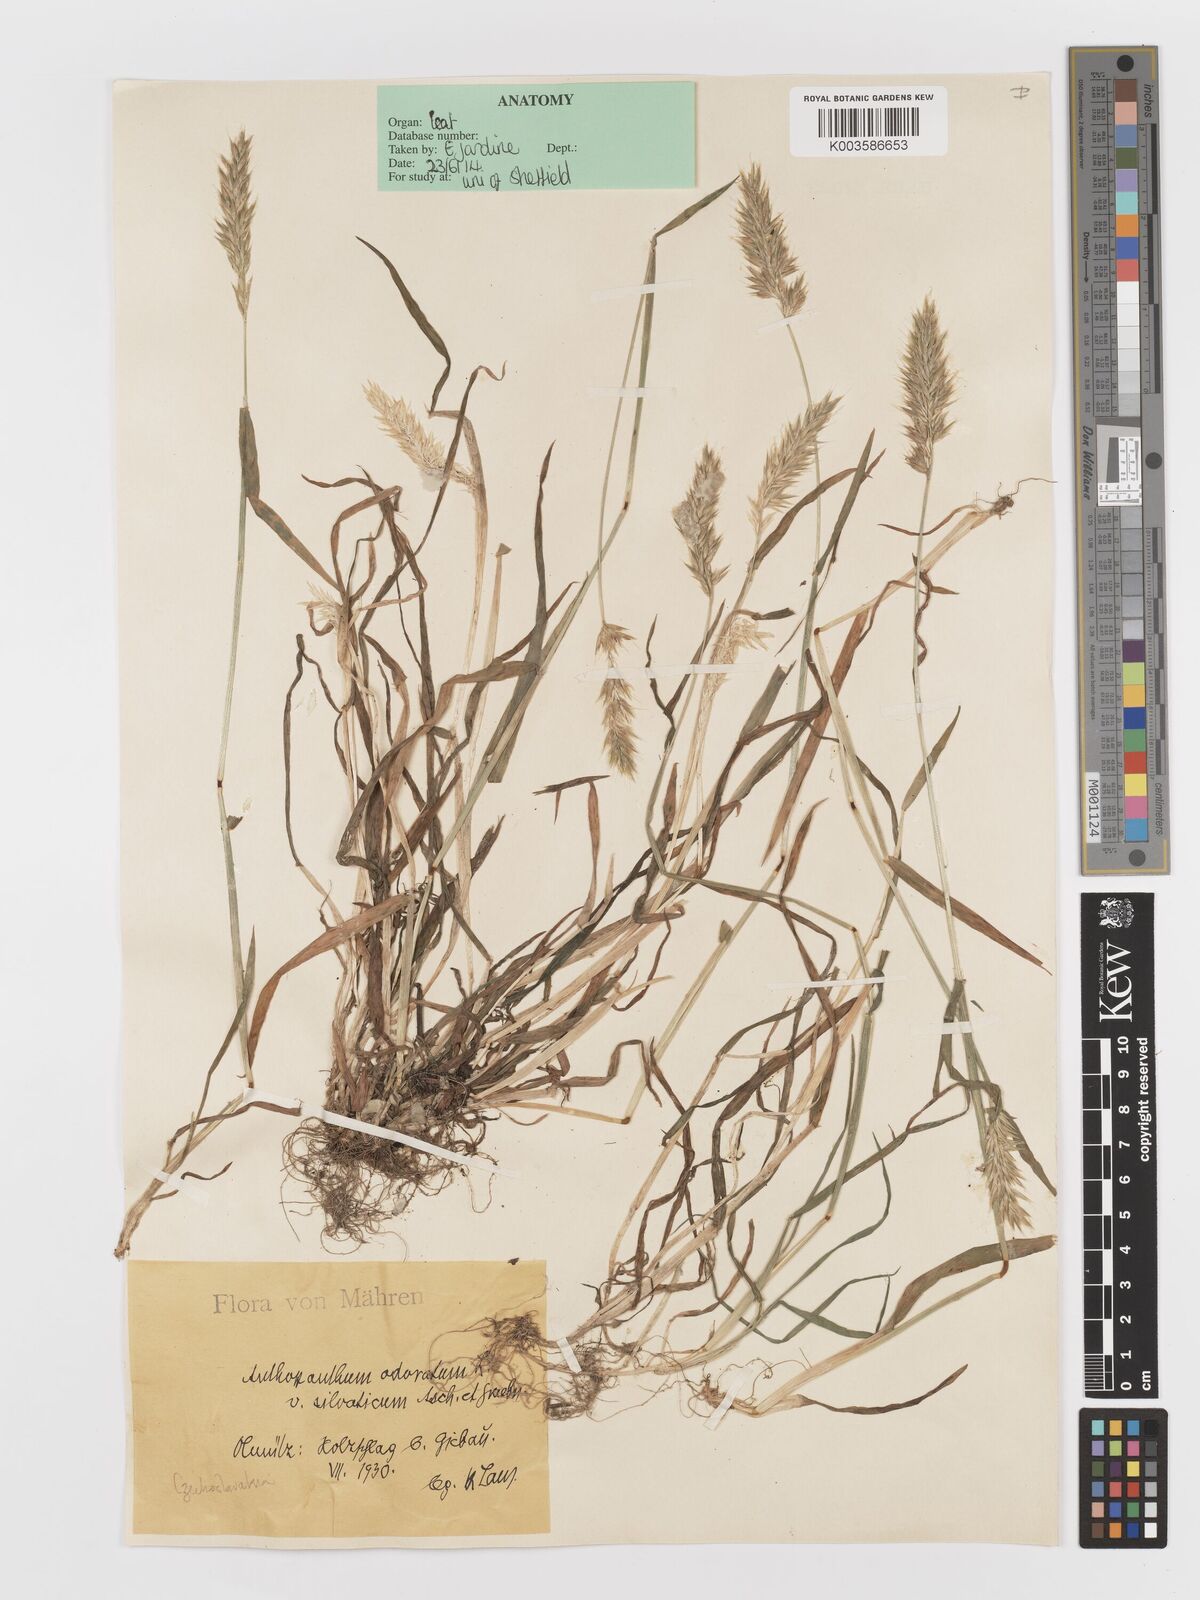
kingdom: Plantae
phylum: Tracheophyta
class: Liliopsida
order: Poales
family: Poaceae
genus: Anthoxanthum
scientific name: Anthoxanthum odoratum
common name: Sweet vernalgrass
